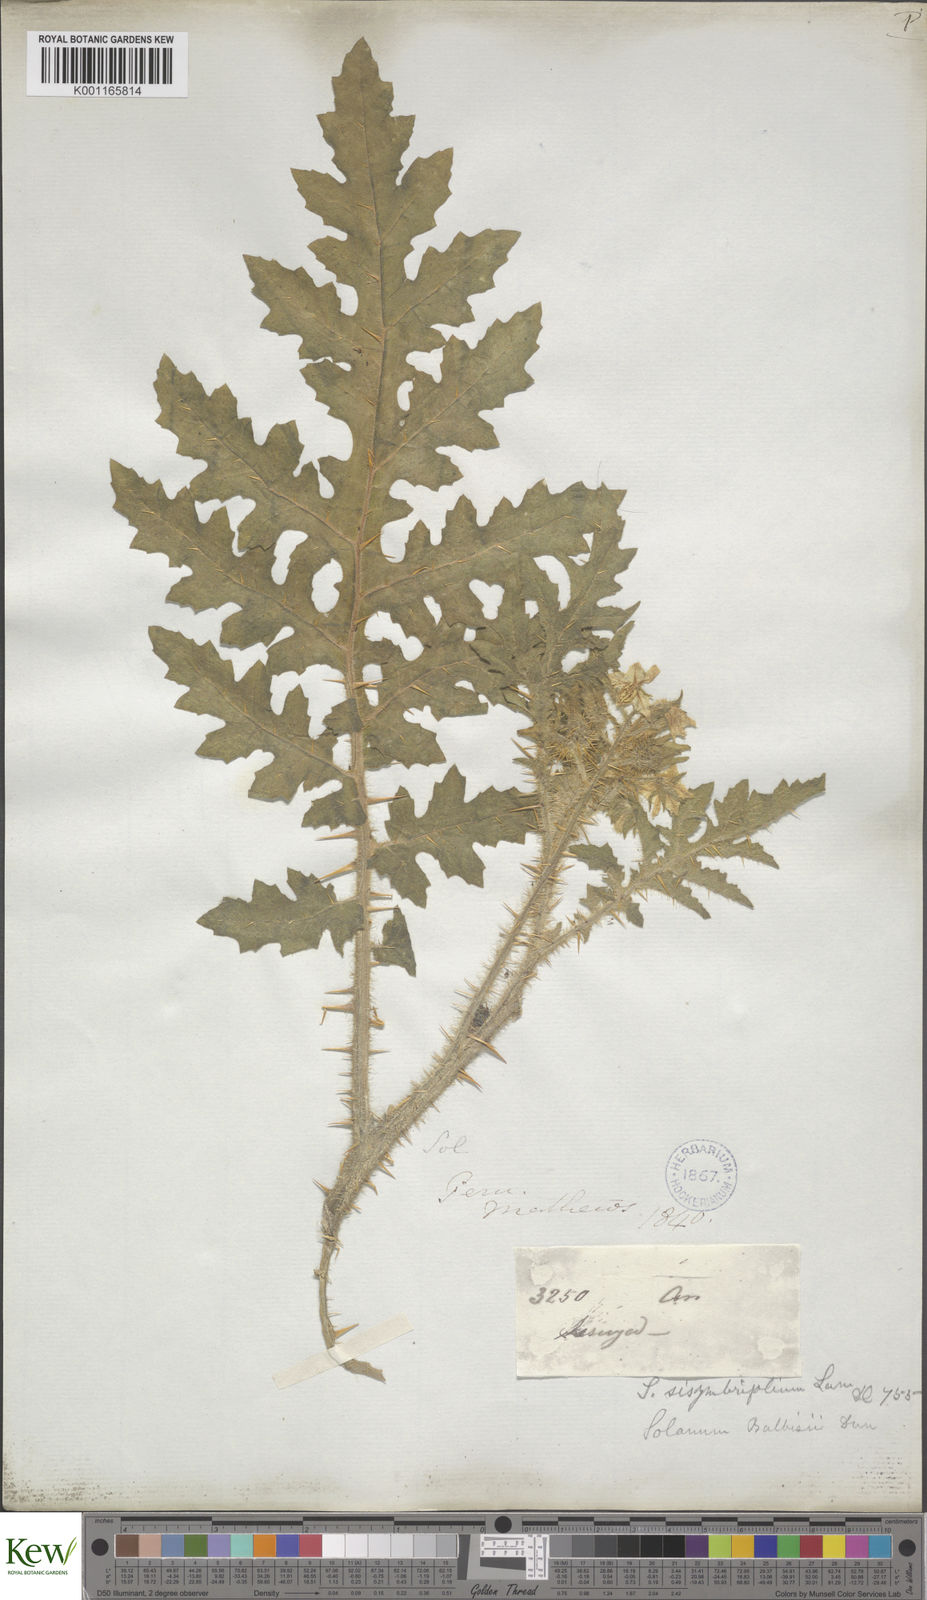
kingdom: Plantae
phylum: Tracheophyta
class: Magnoliopsida
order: Solanales
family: Solanaceae
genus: Solanum
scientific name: Solanum sisymbriifolium
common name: Red buffalo-bur
